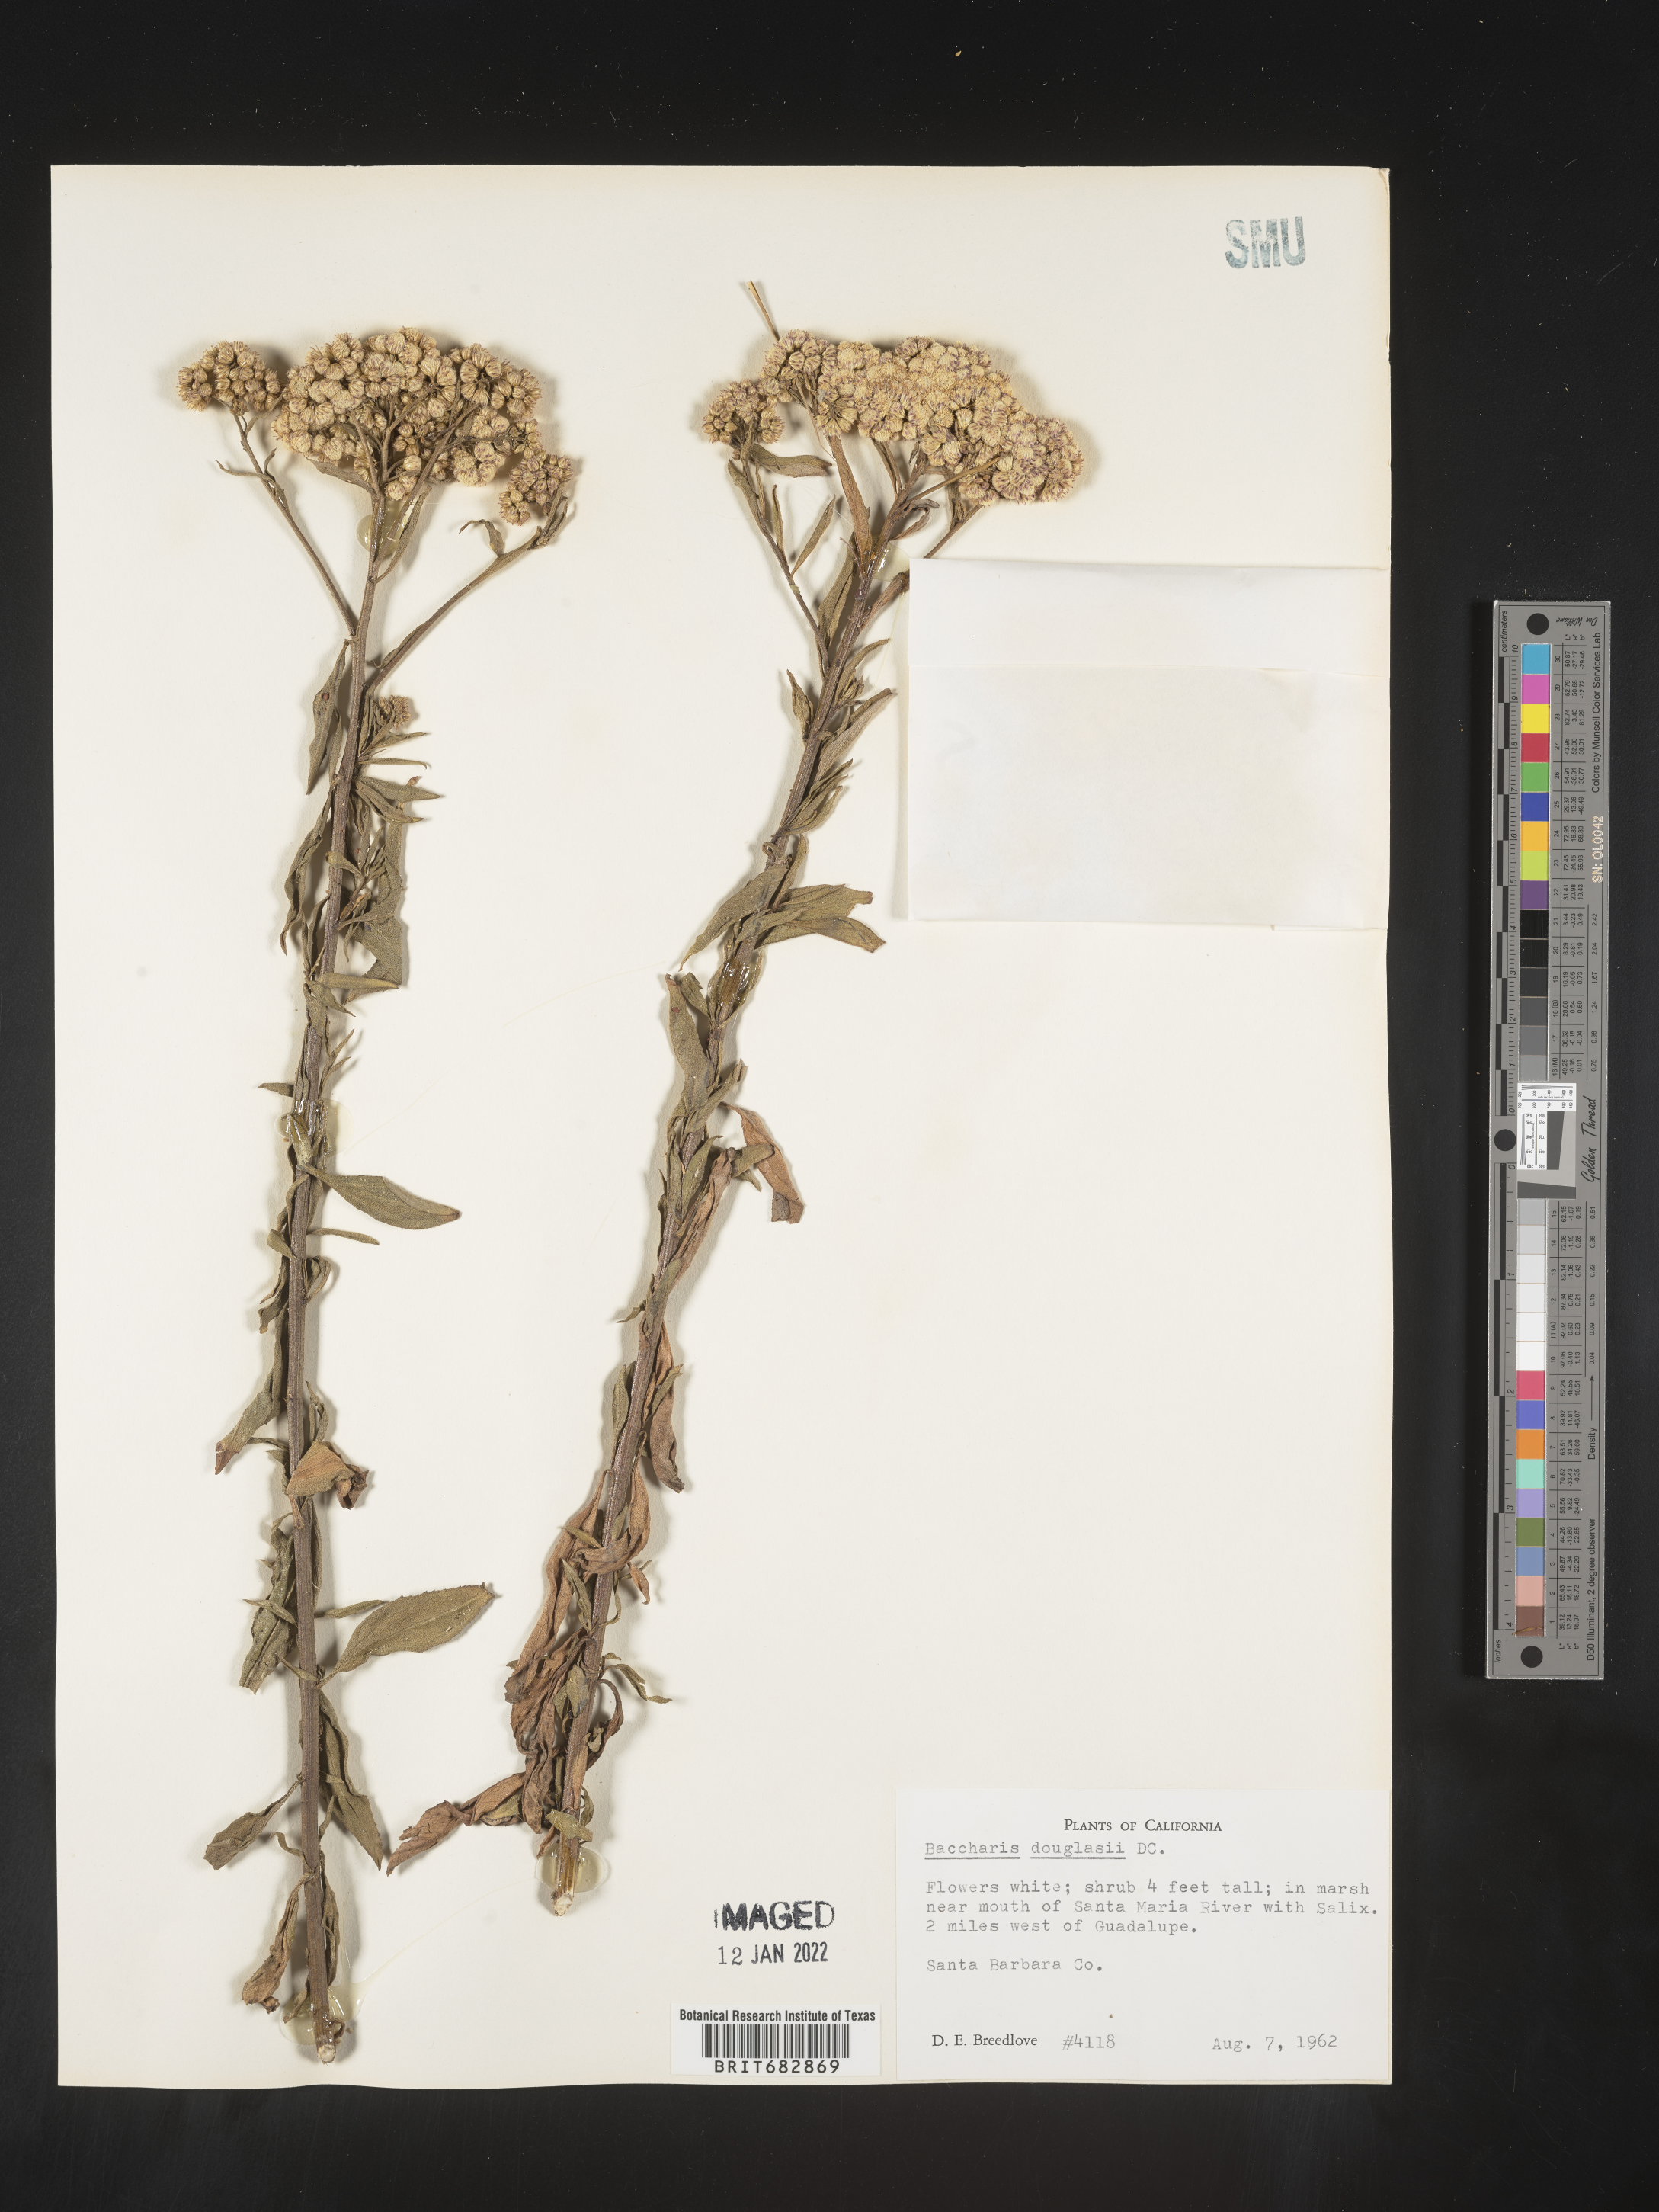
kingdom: Plantae
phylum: Tracheophyta
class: Magnoliopsida
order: Asterales
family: Asteraceae
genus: Baccharis
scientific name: Baccharis douglasii
